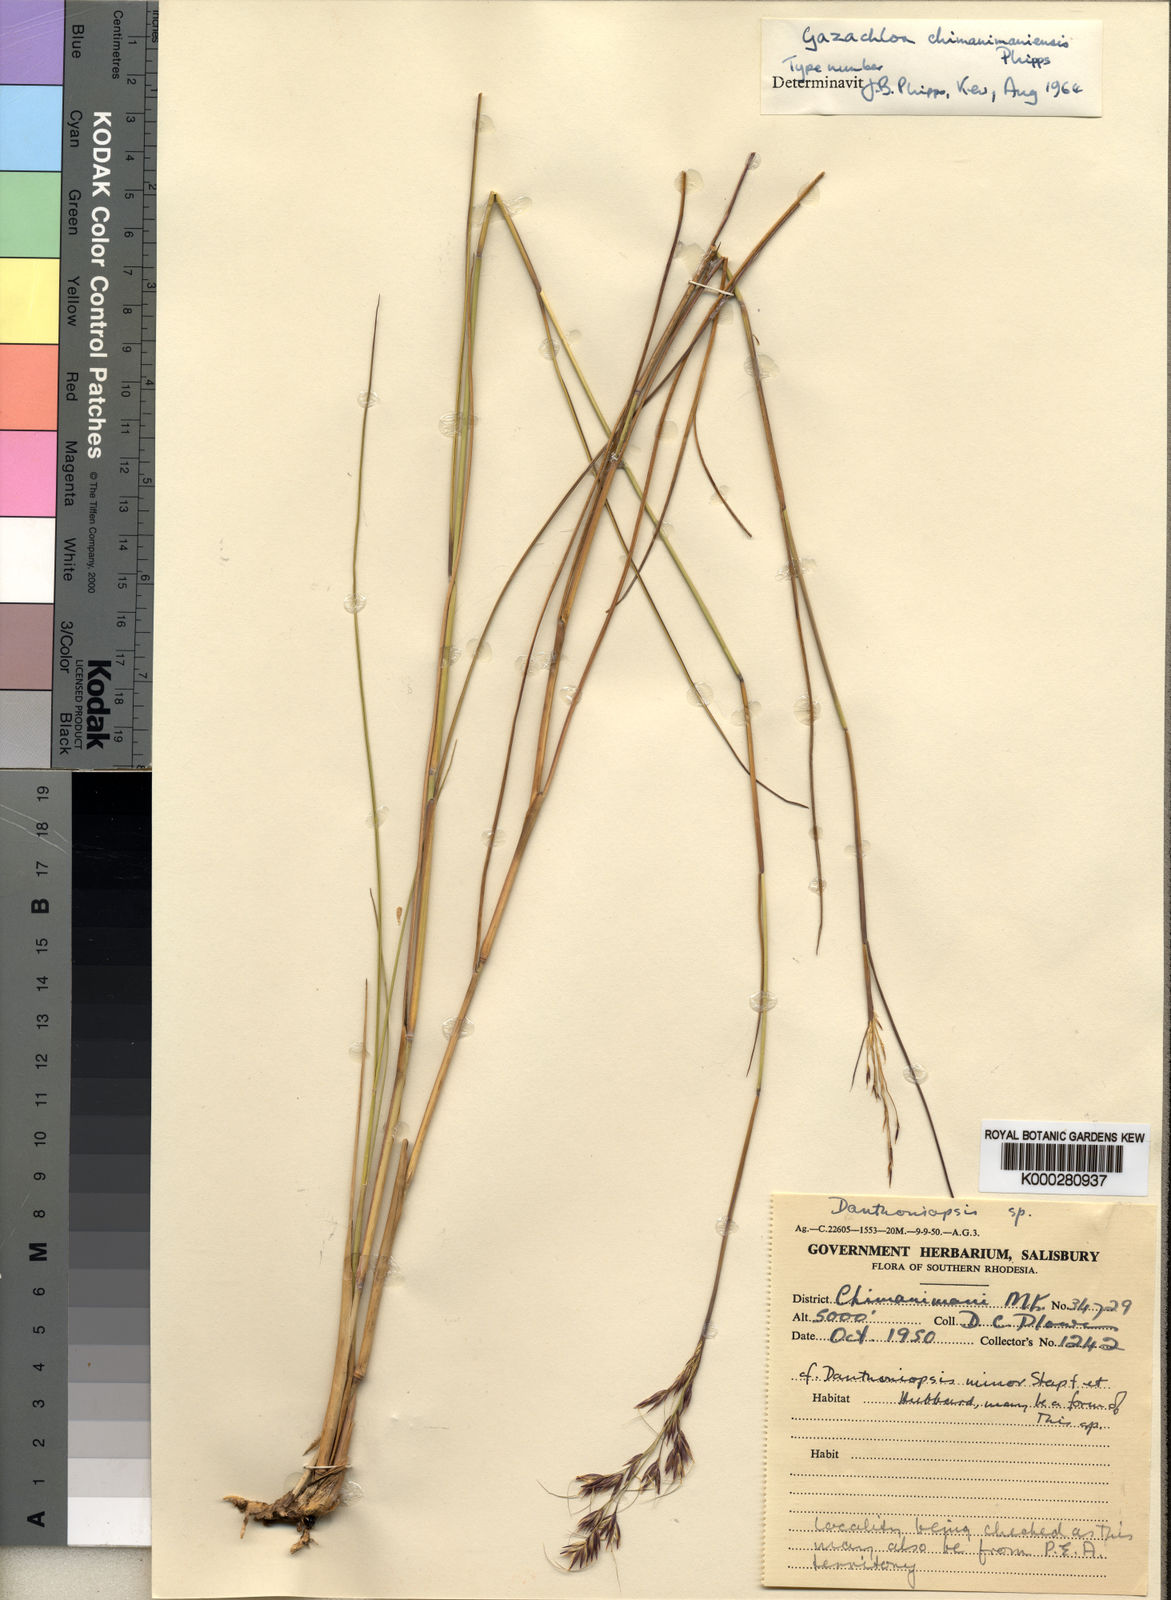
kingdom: Plantae
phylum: Tracheophyta
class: Liliopsida
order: Poales
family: Poaceae
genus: Danthoniopsis
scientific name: Danthoniopsis chimanimaniensis
